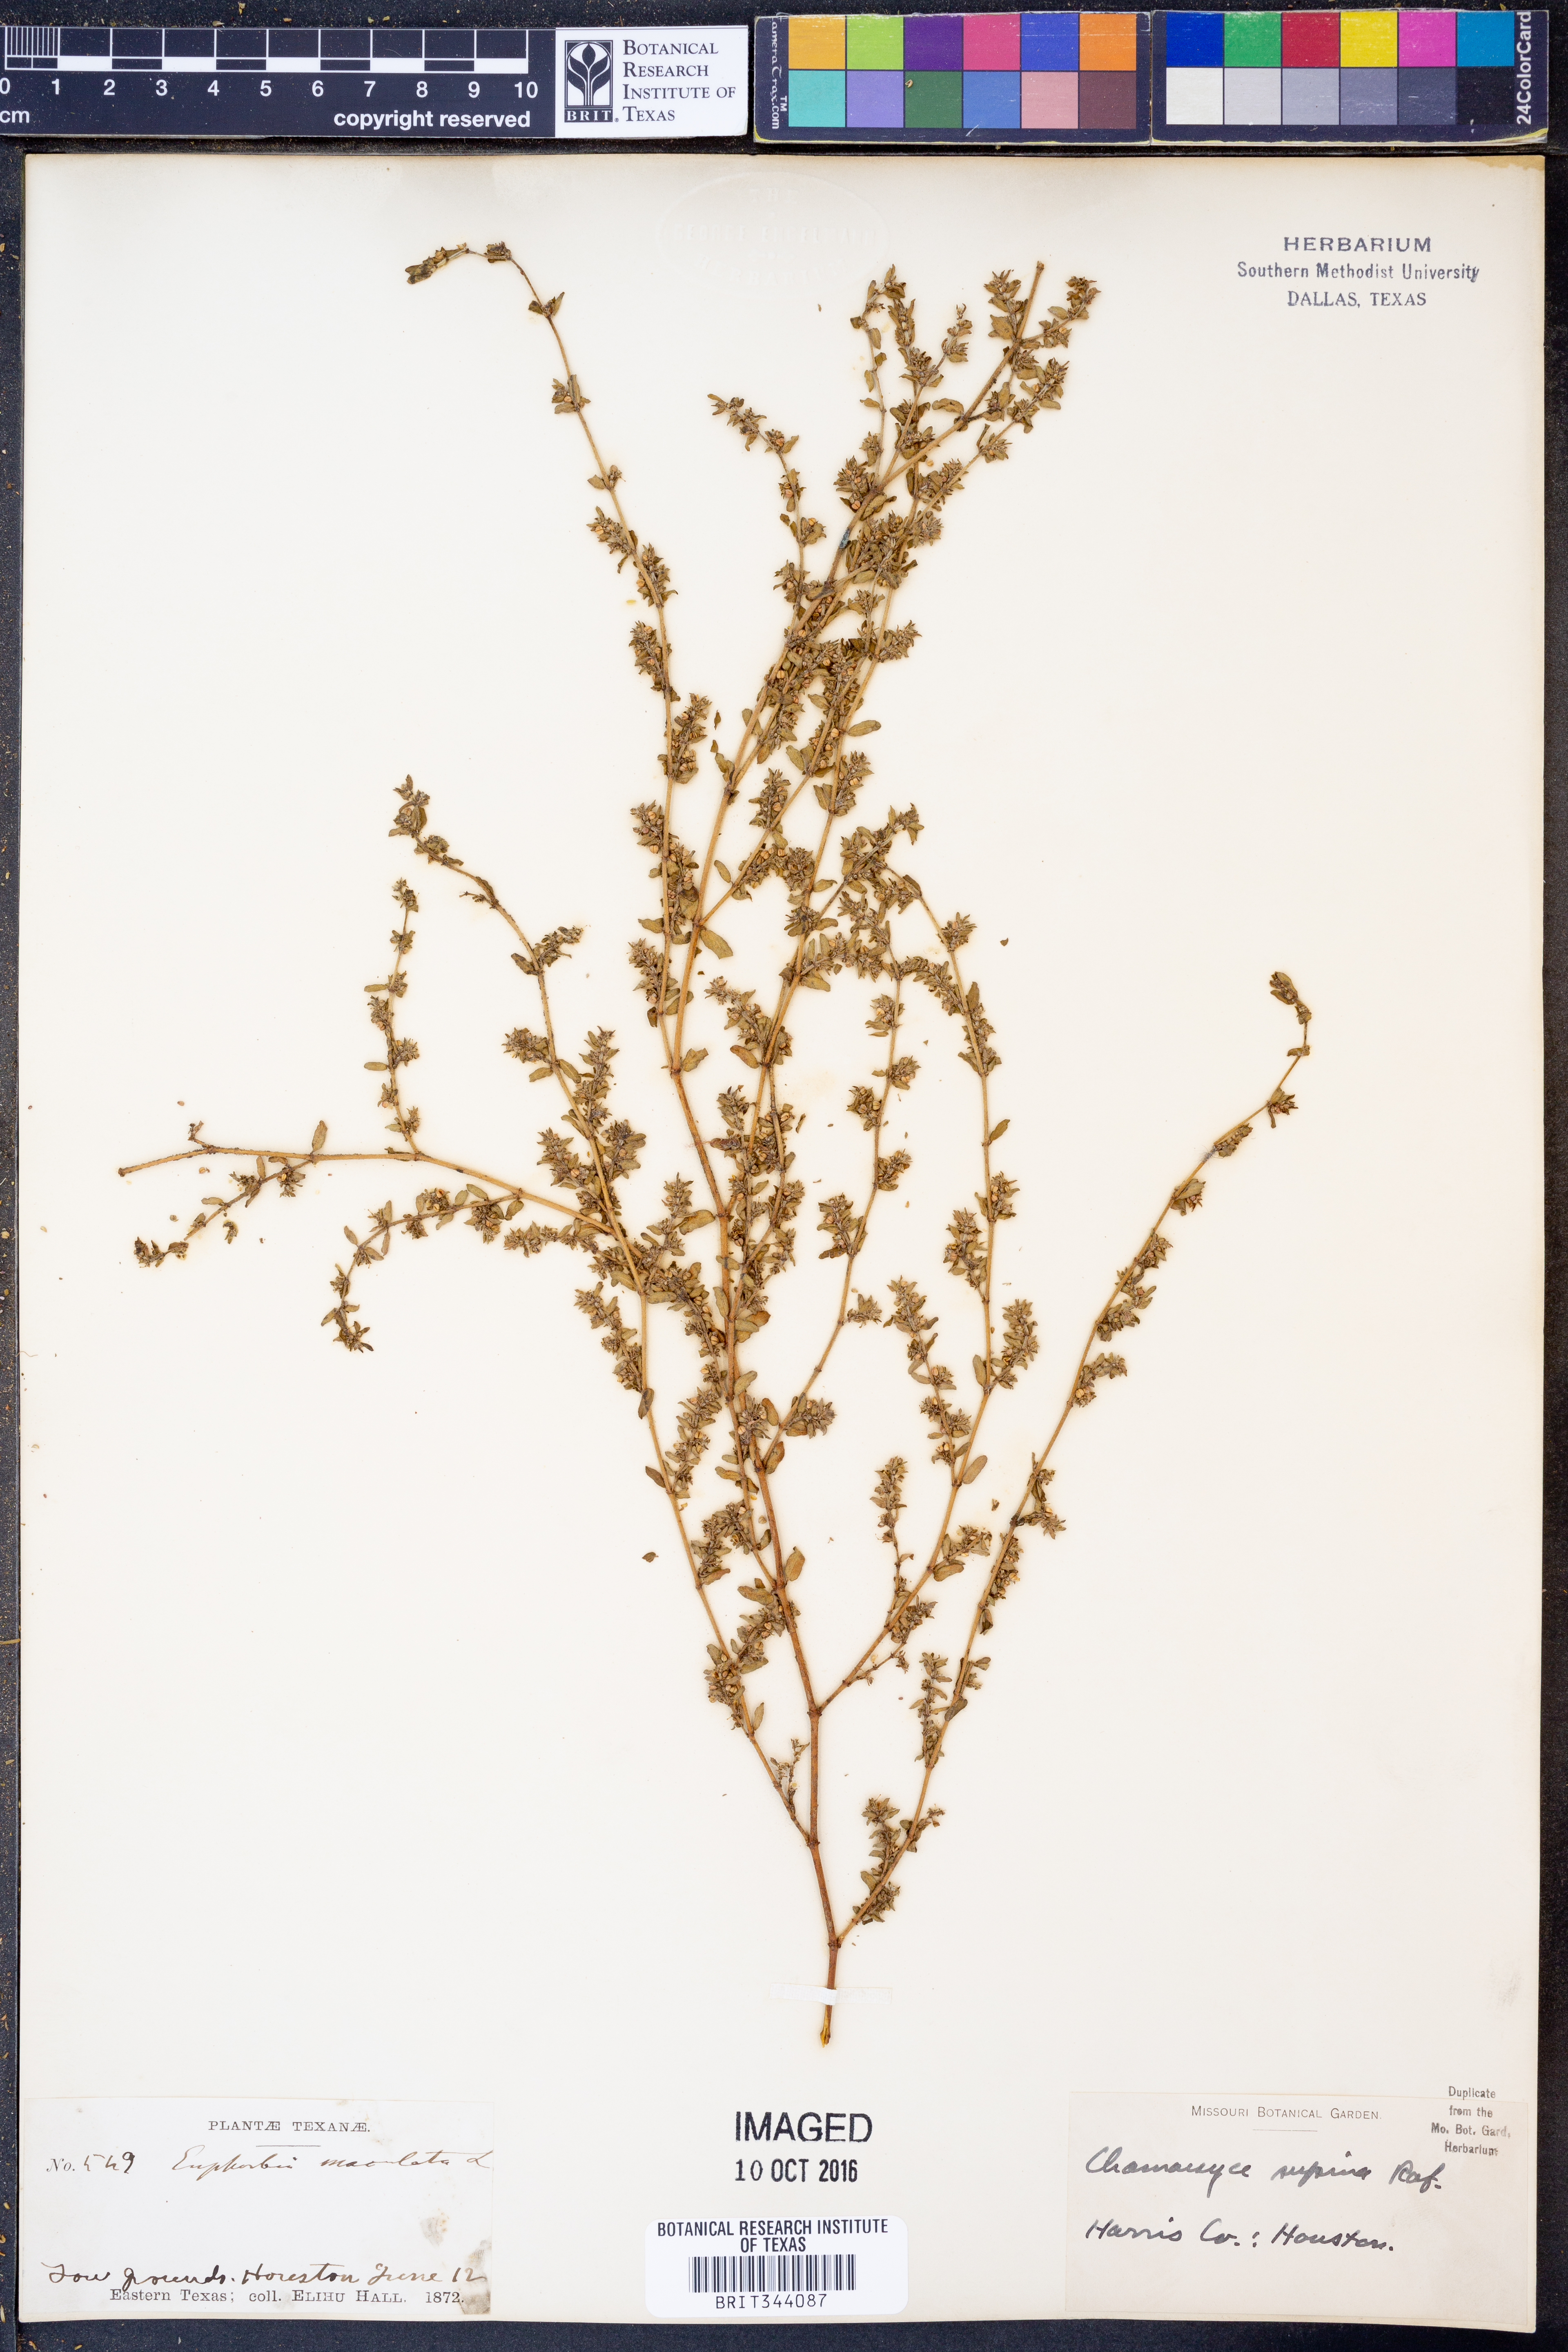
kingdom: Plantae
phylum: Tracheophyta
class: Magnoliopsida
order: Malpighiales
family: Euphorbiaceae
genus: Euphorbia
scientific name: Euphorbia maculata
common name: Spotted spurge
